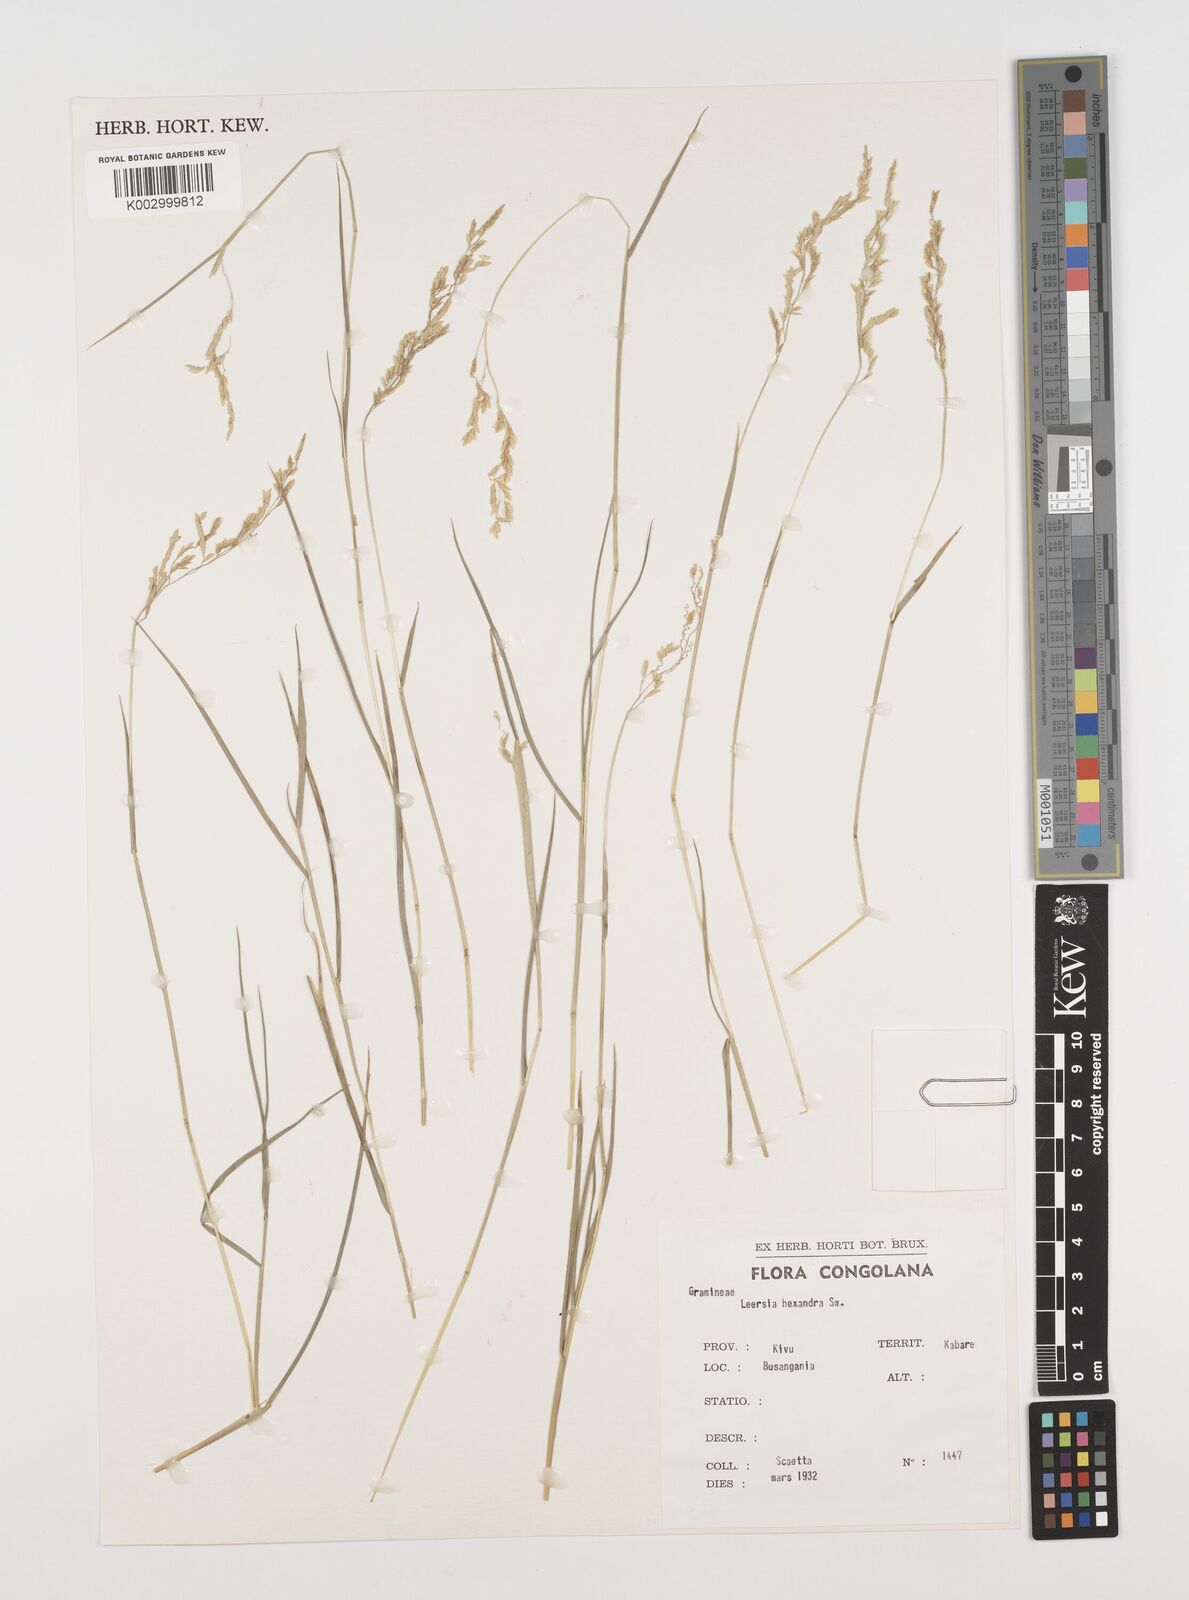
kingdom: Plantae
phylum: Tracheophyta
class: Liliopsida
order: Poales
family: Poaceae
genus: Leersia
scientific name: Leersia hexandra
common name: Southern cut grass
